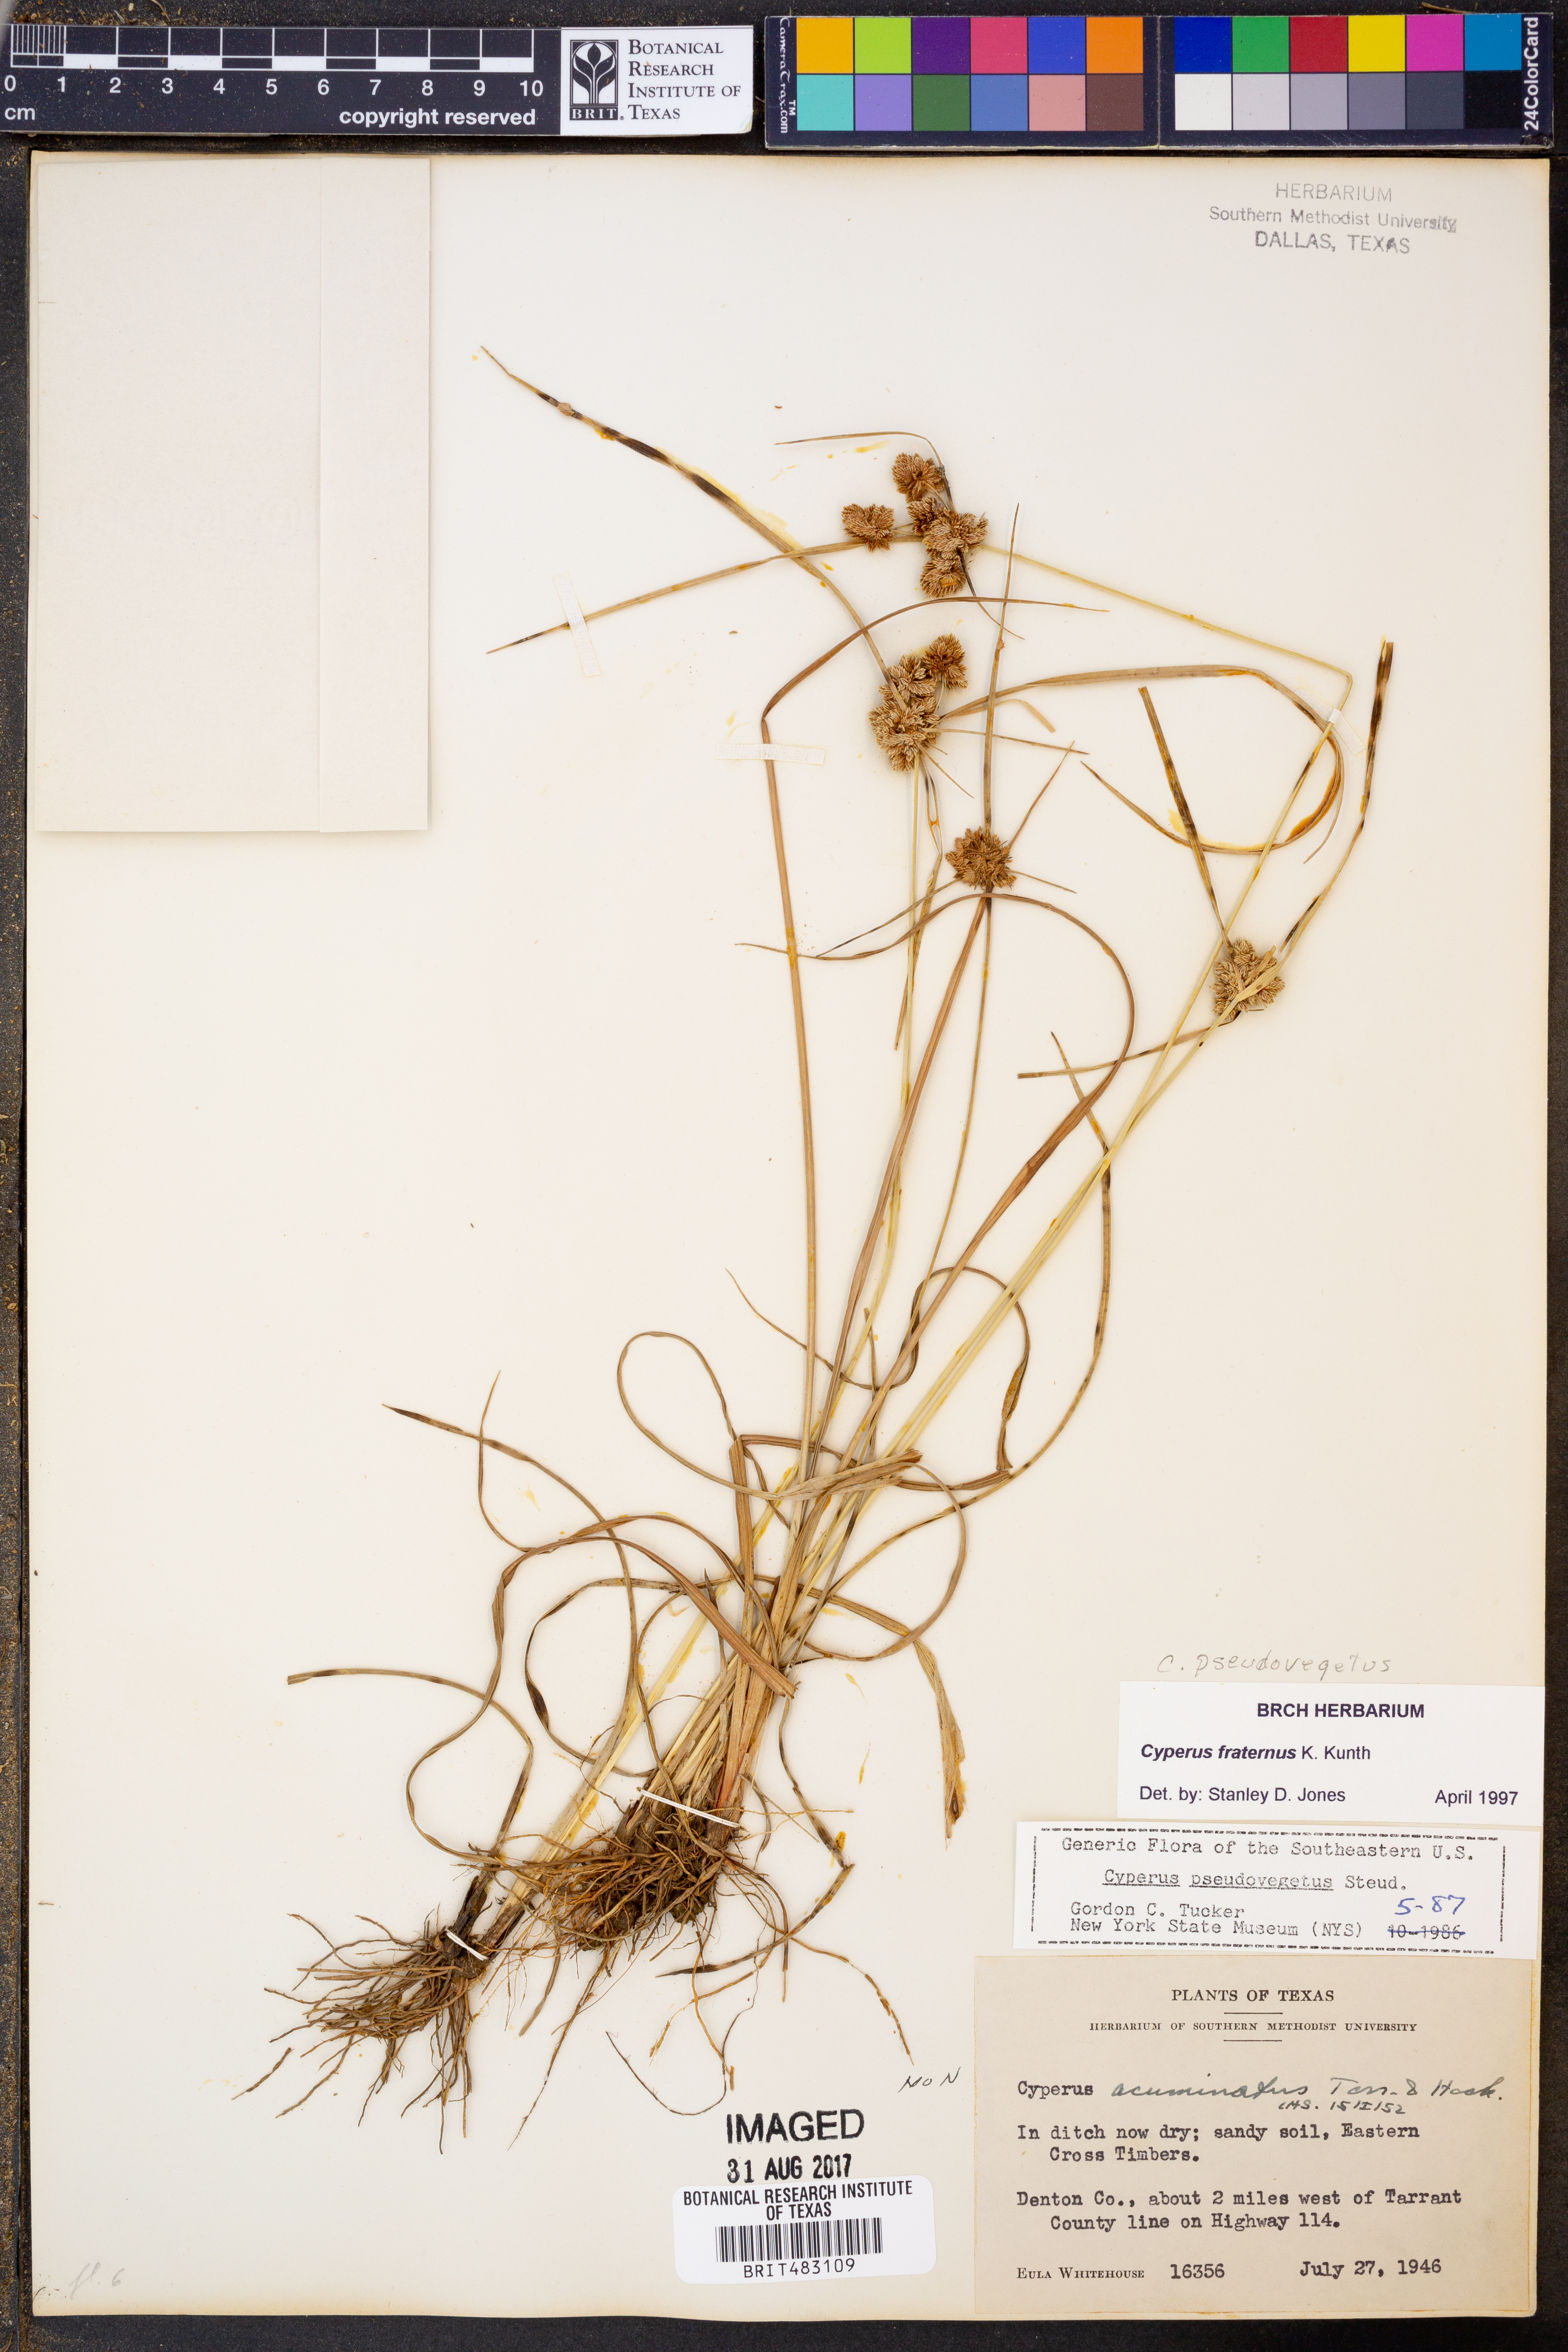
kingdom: Plantae
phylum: Tracheophyta
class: Liliopsida
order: Poales
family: Cyperaceae
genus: Cyperus
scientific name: Cyperus pseudovegetus
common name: Marsh flat sedge
